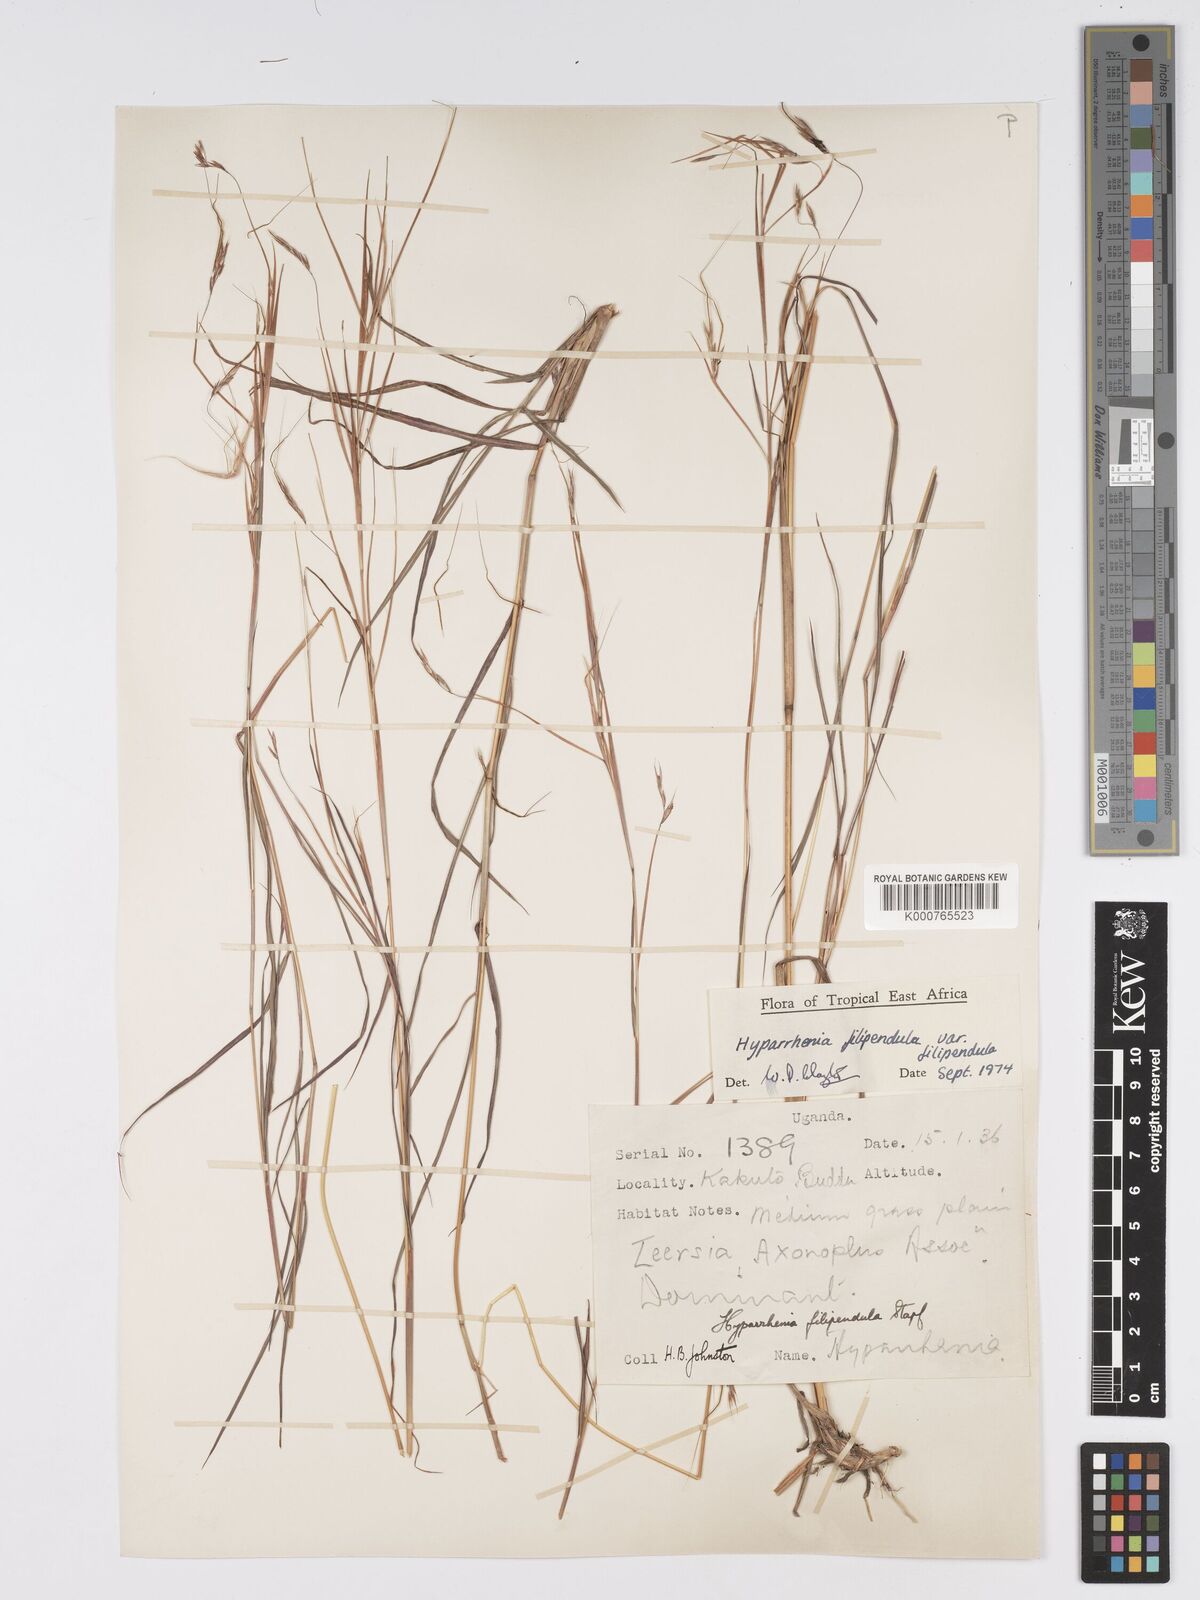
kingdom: Plantae
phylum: Tracheophyta
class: Liliopsida
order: Poales
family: Poaceae
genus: Hyparrhenia
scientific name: Hyparrhenia filipendula
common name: Tambookie grass
